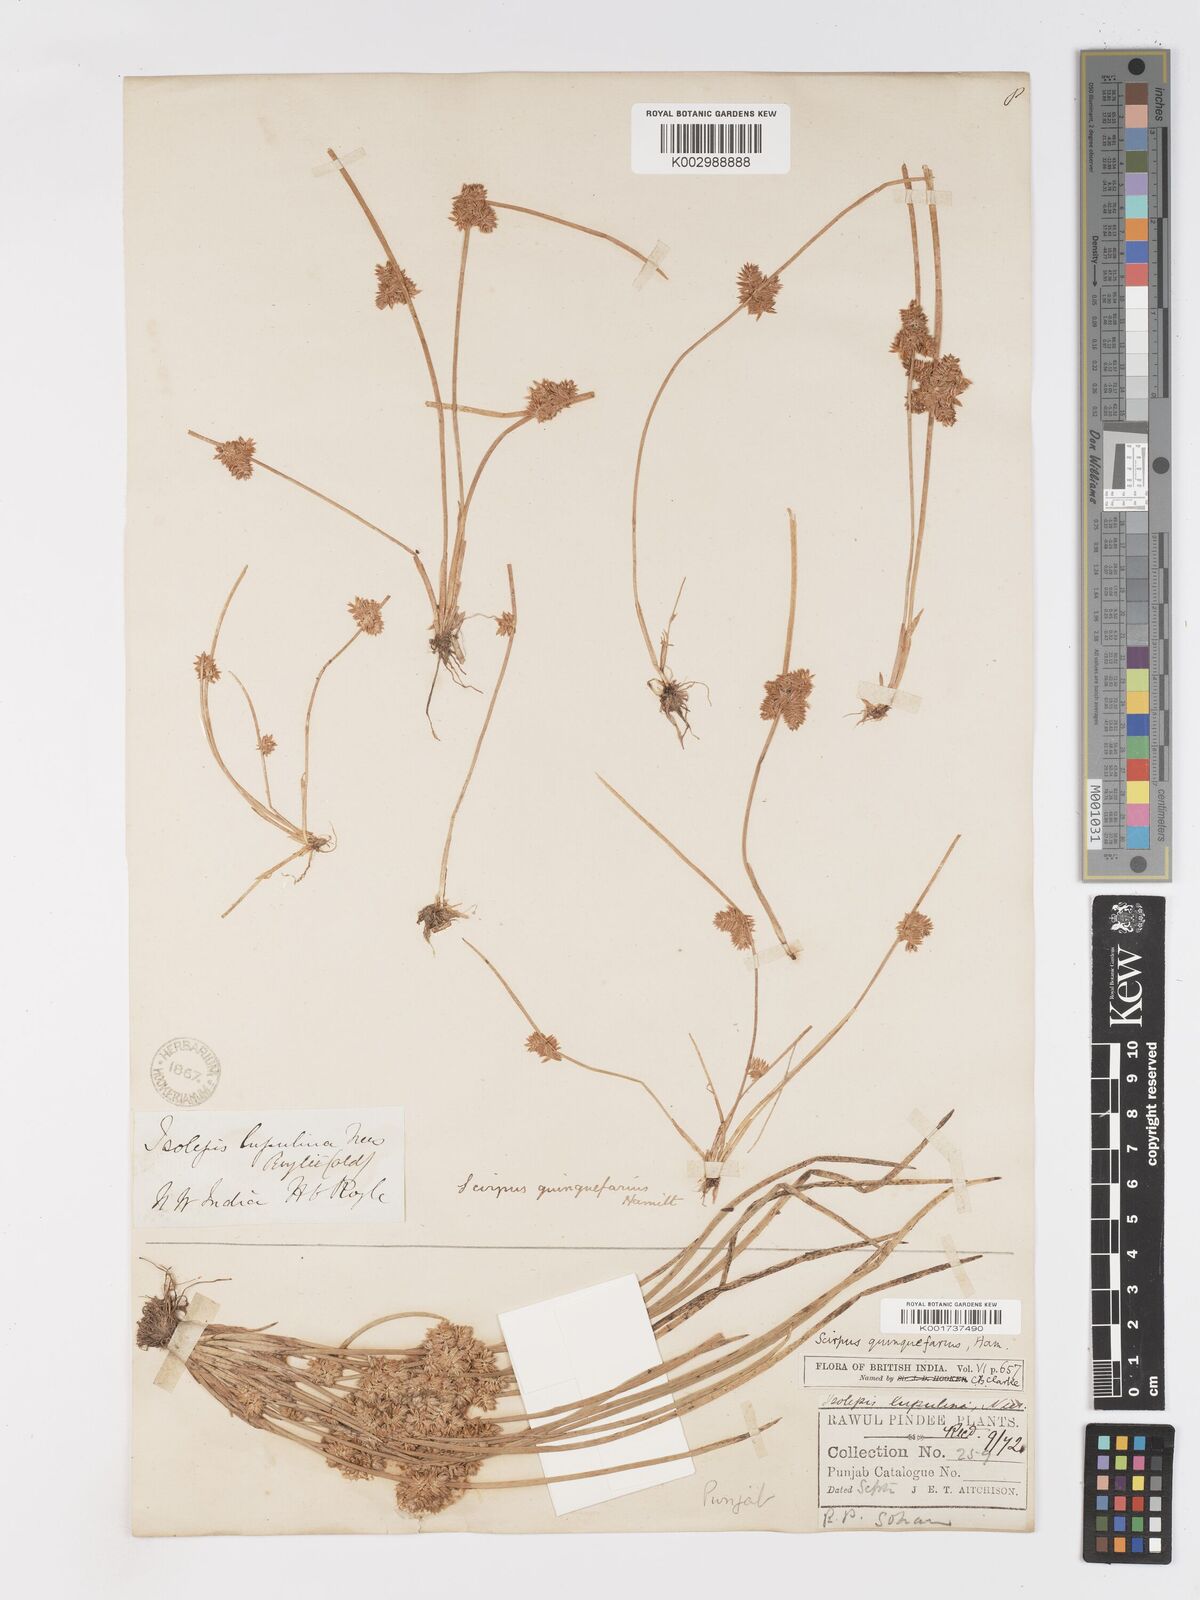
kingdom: Plantae
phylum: Tracheophyta
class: Liliopsida
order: Poales
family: Cyperaceae
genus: Schoenoplectiella
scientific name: Schoenoplectiella roylei
